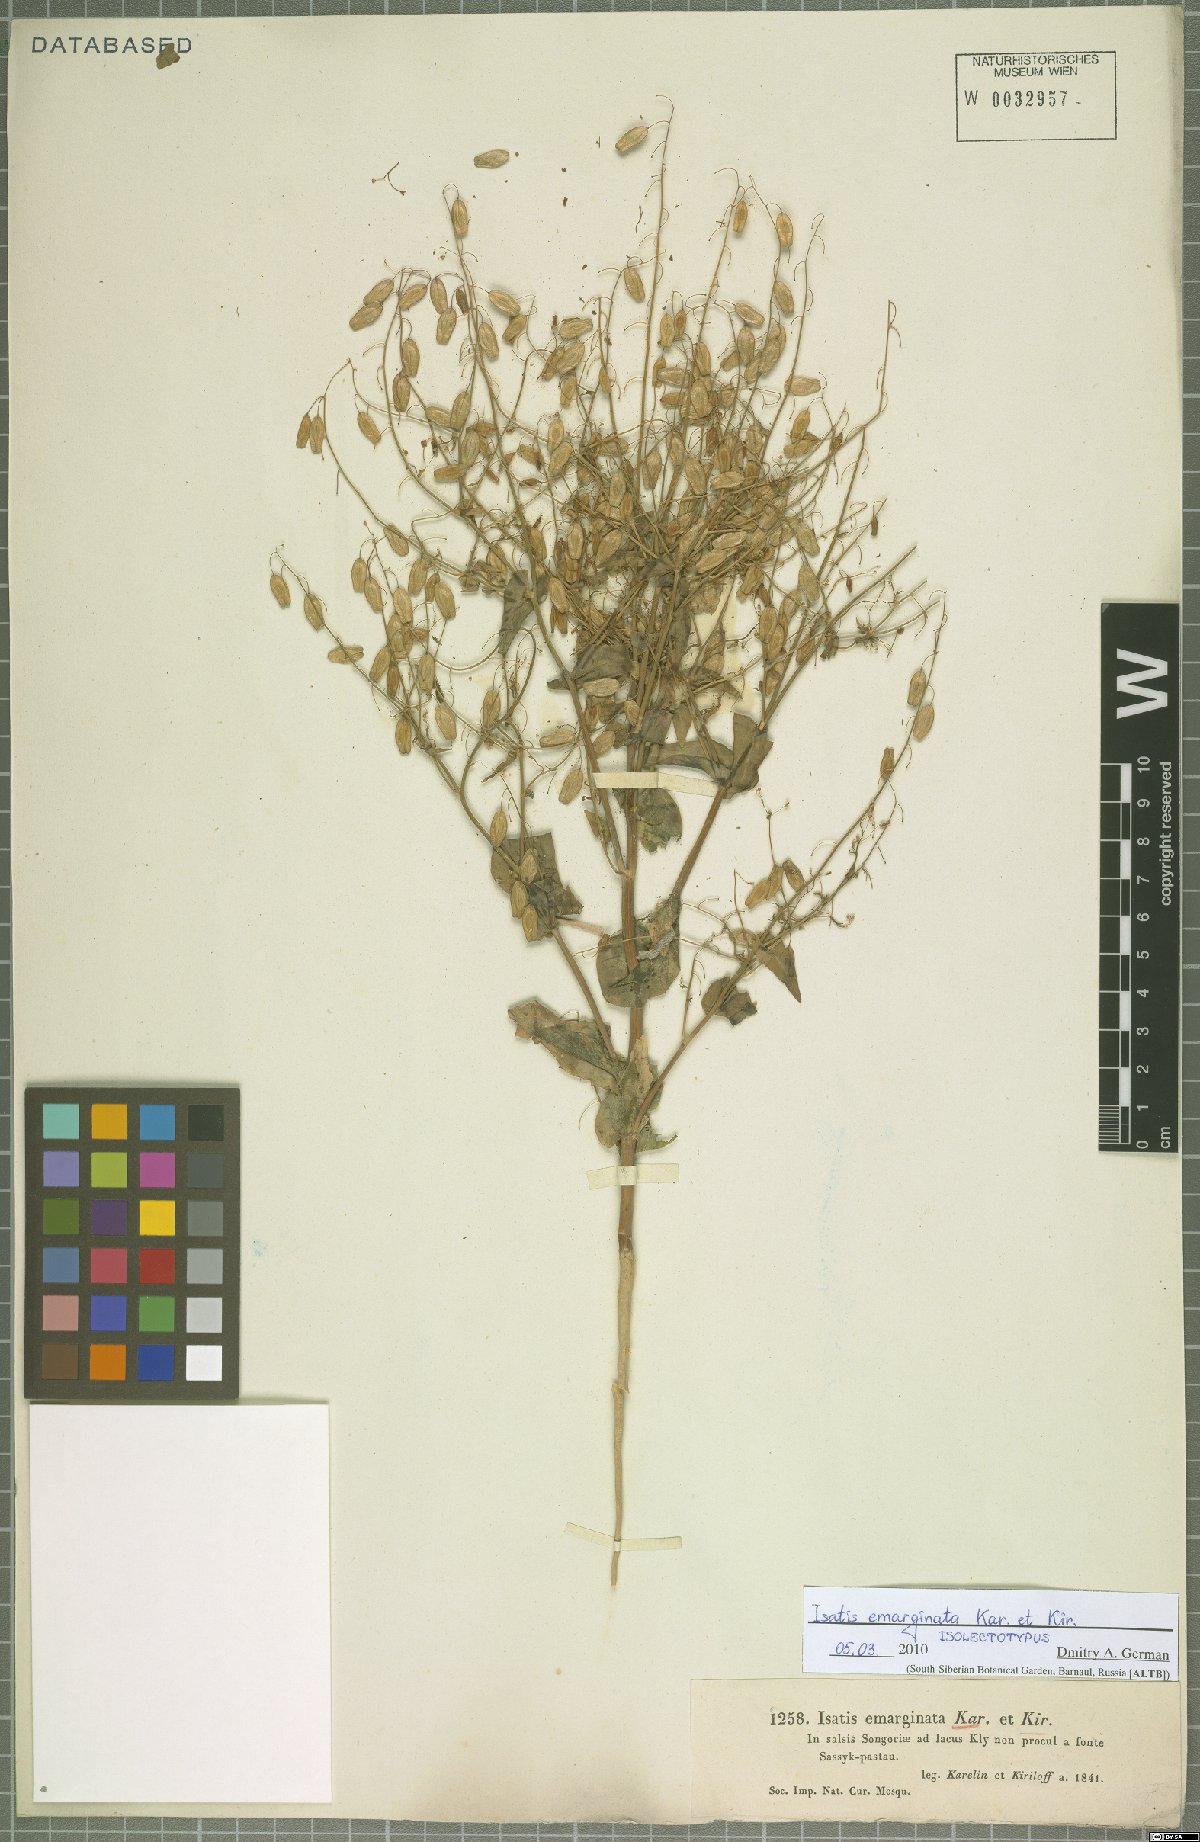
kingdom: Plantae
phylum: Tracheophyta
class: Magnoliopsida
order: Brassicales
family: Brassicaceae
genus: Isatis
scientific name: Isatis emarginata
